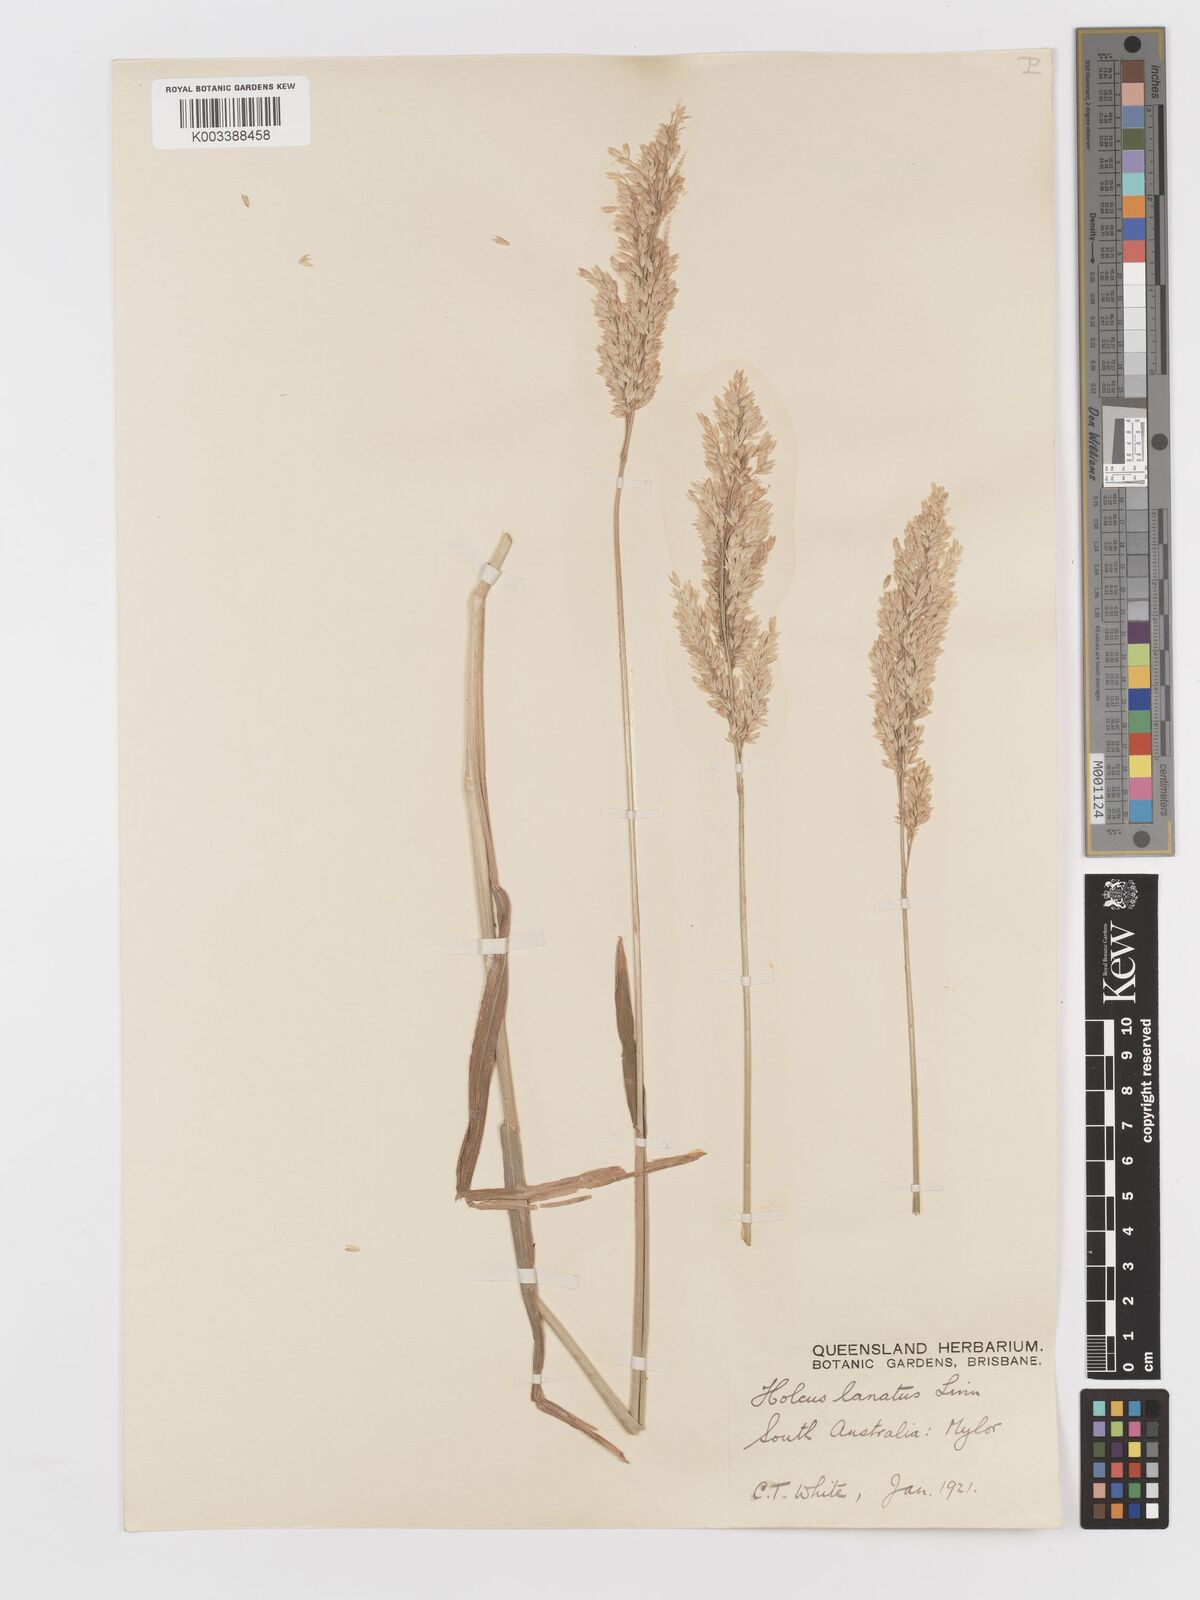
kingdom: Plantae
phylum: Tracheophyta
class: Liliopsida
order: Poales
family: Poaceae
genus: Holcus
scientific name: Holcus lanatus
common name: Yorkshire-fog
